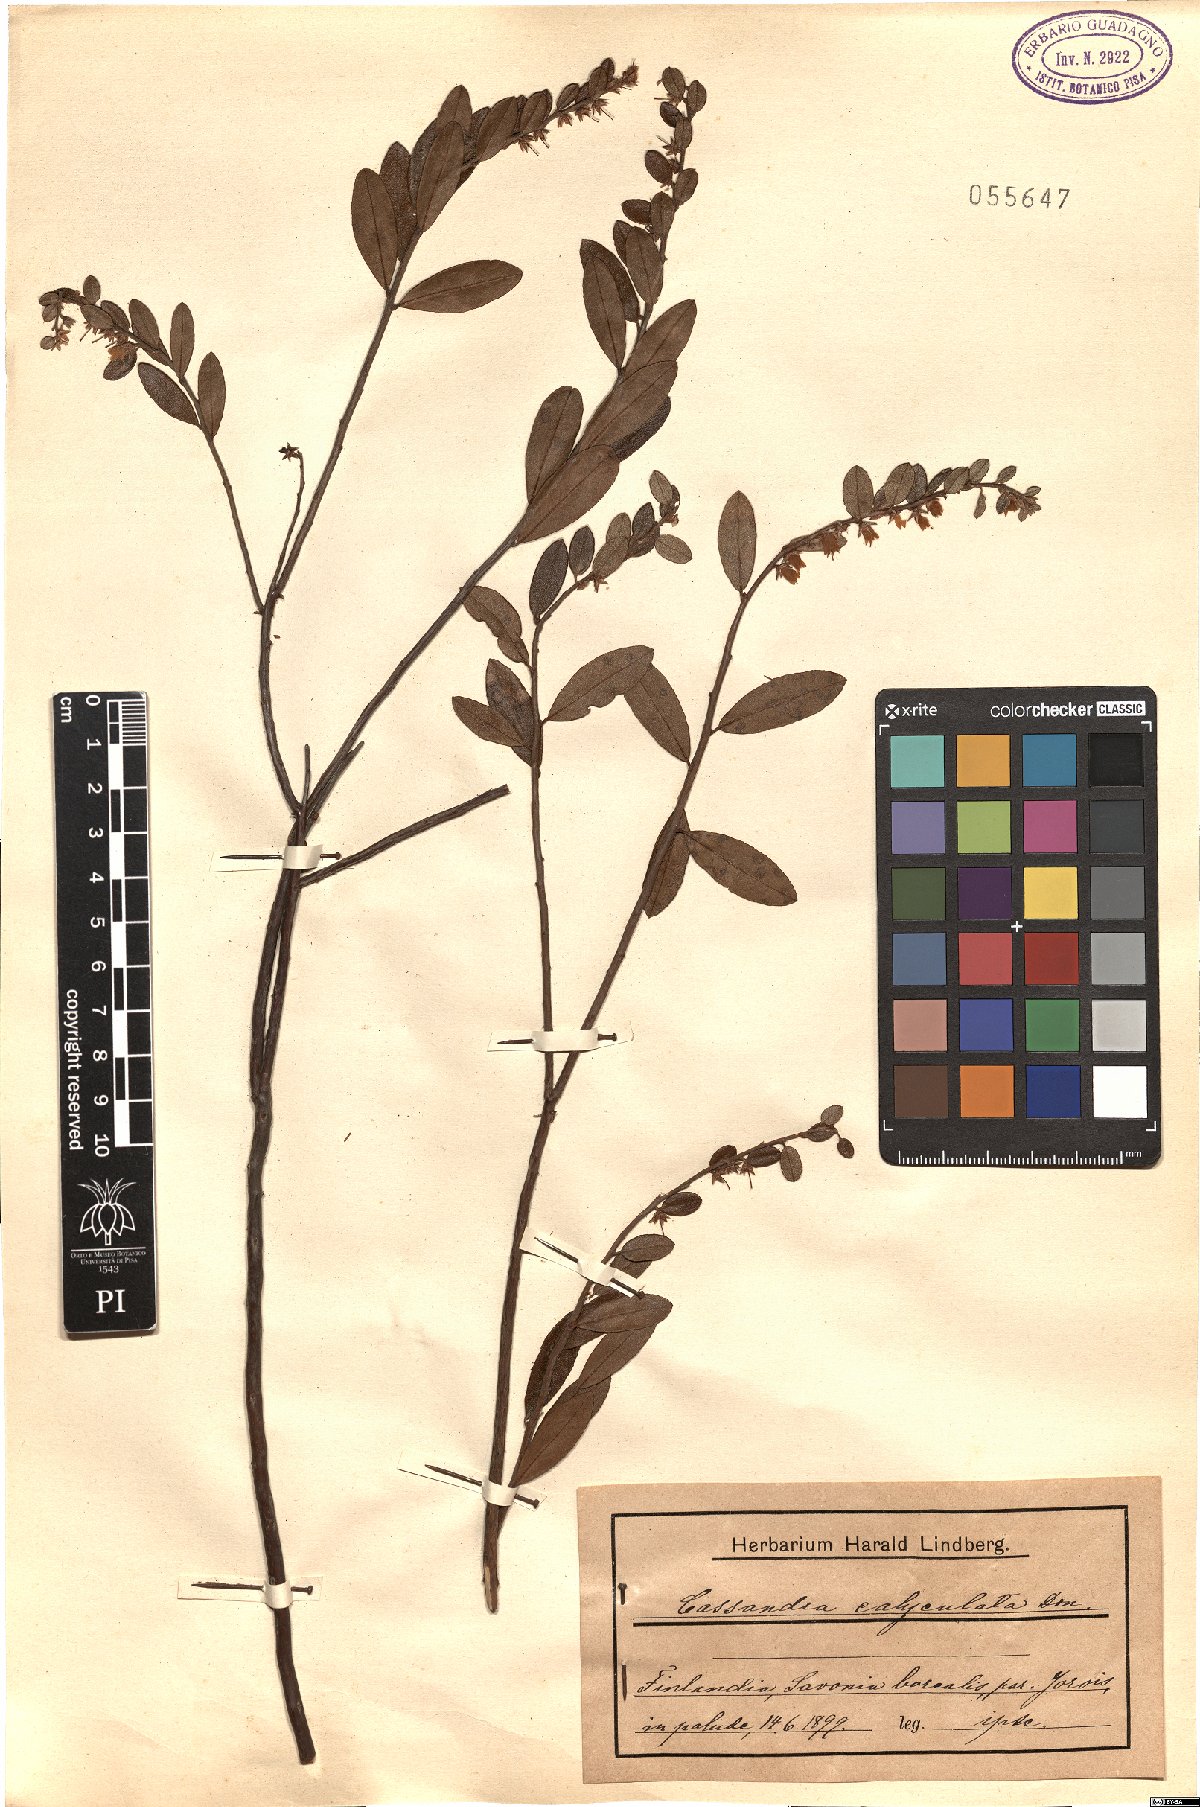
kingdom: Plantae
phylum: Tracheophyta
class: Magnoliopsida
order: Ericales
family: Ericaceae
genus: Chamaedaphne
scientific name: Chamaedaphne calyculata
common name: Leatherleaf
